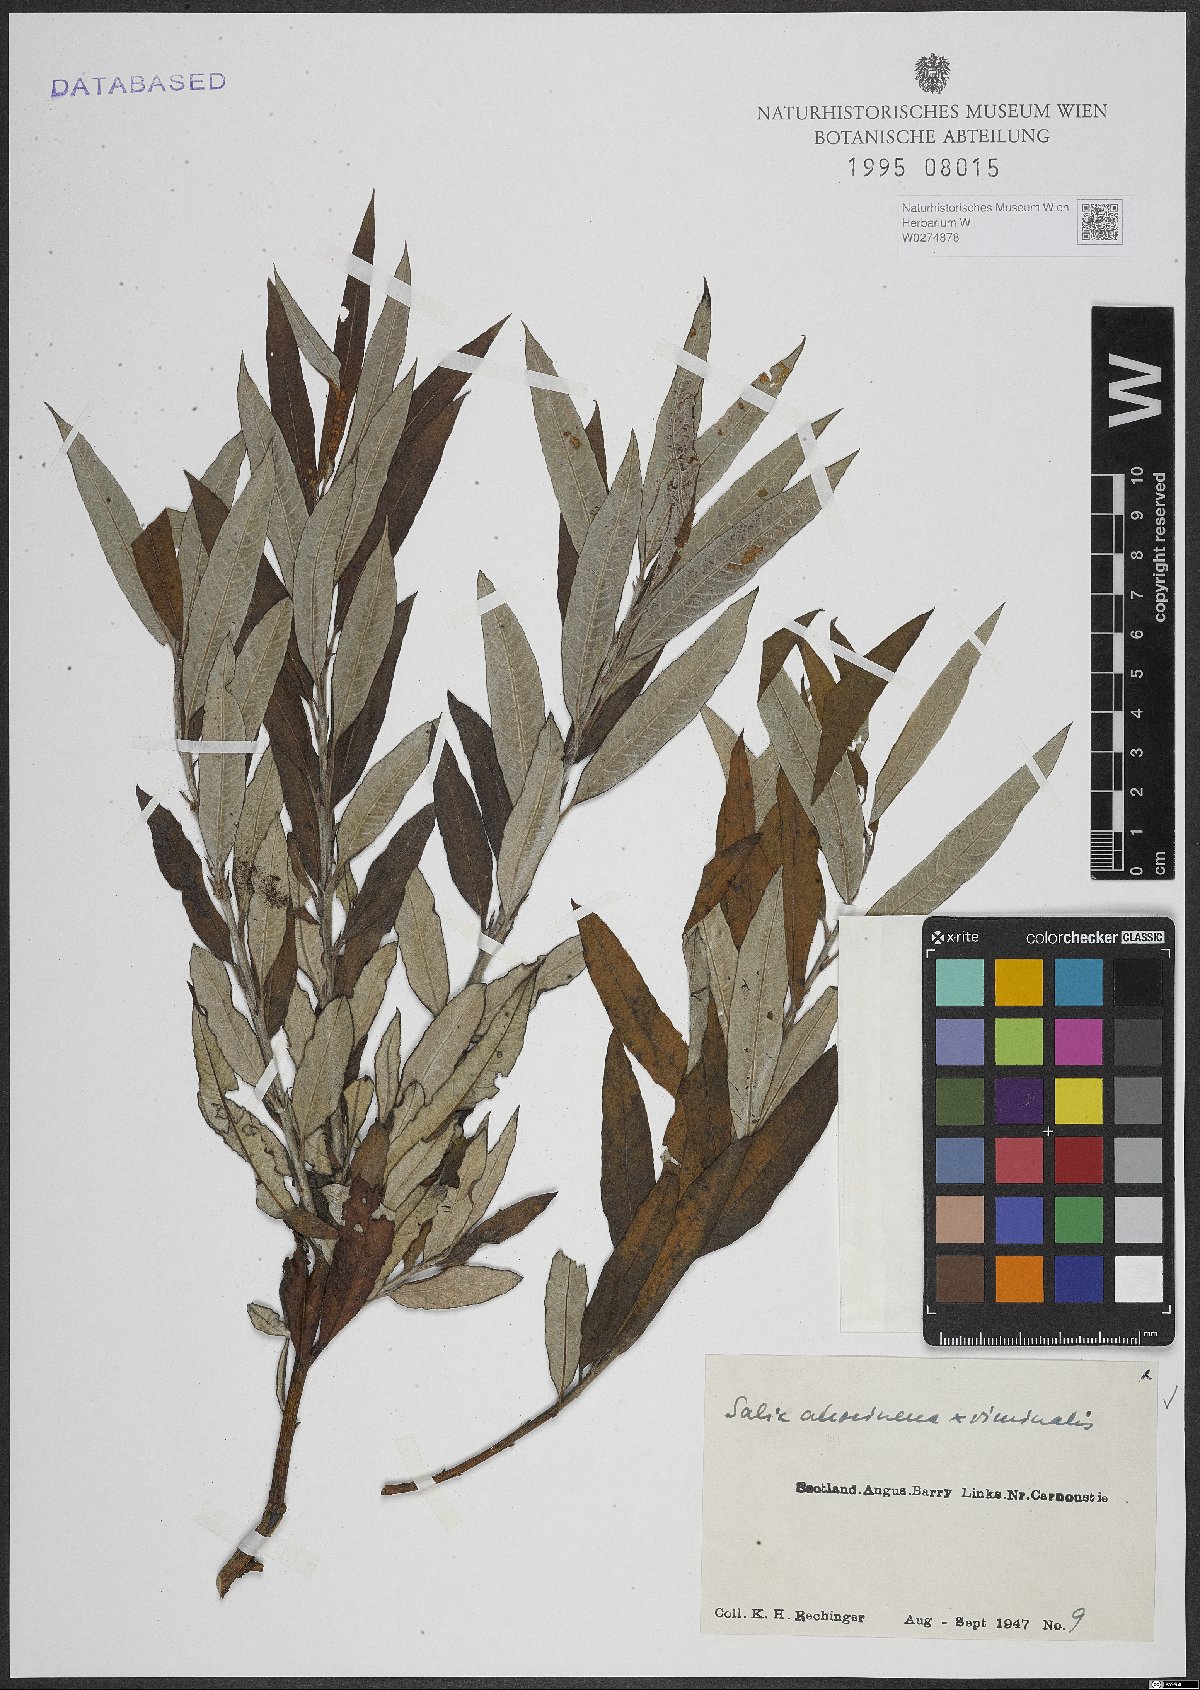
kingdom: Plantae
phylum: Tracheophyta
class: Magnoliopsida
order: Malpighiales
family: Salicaceae
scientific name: Salicaceae
